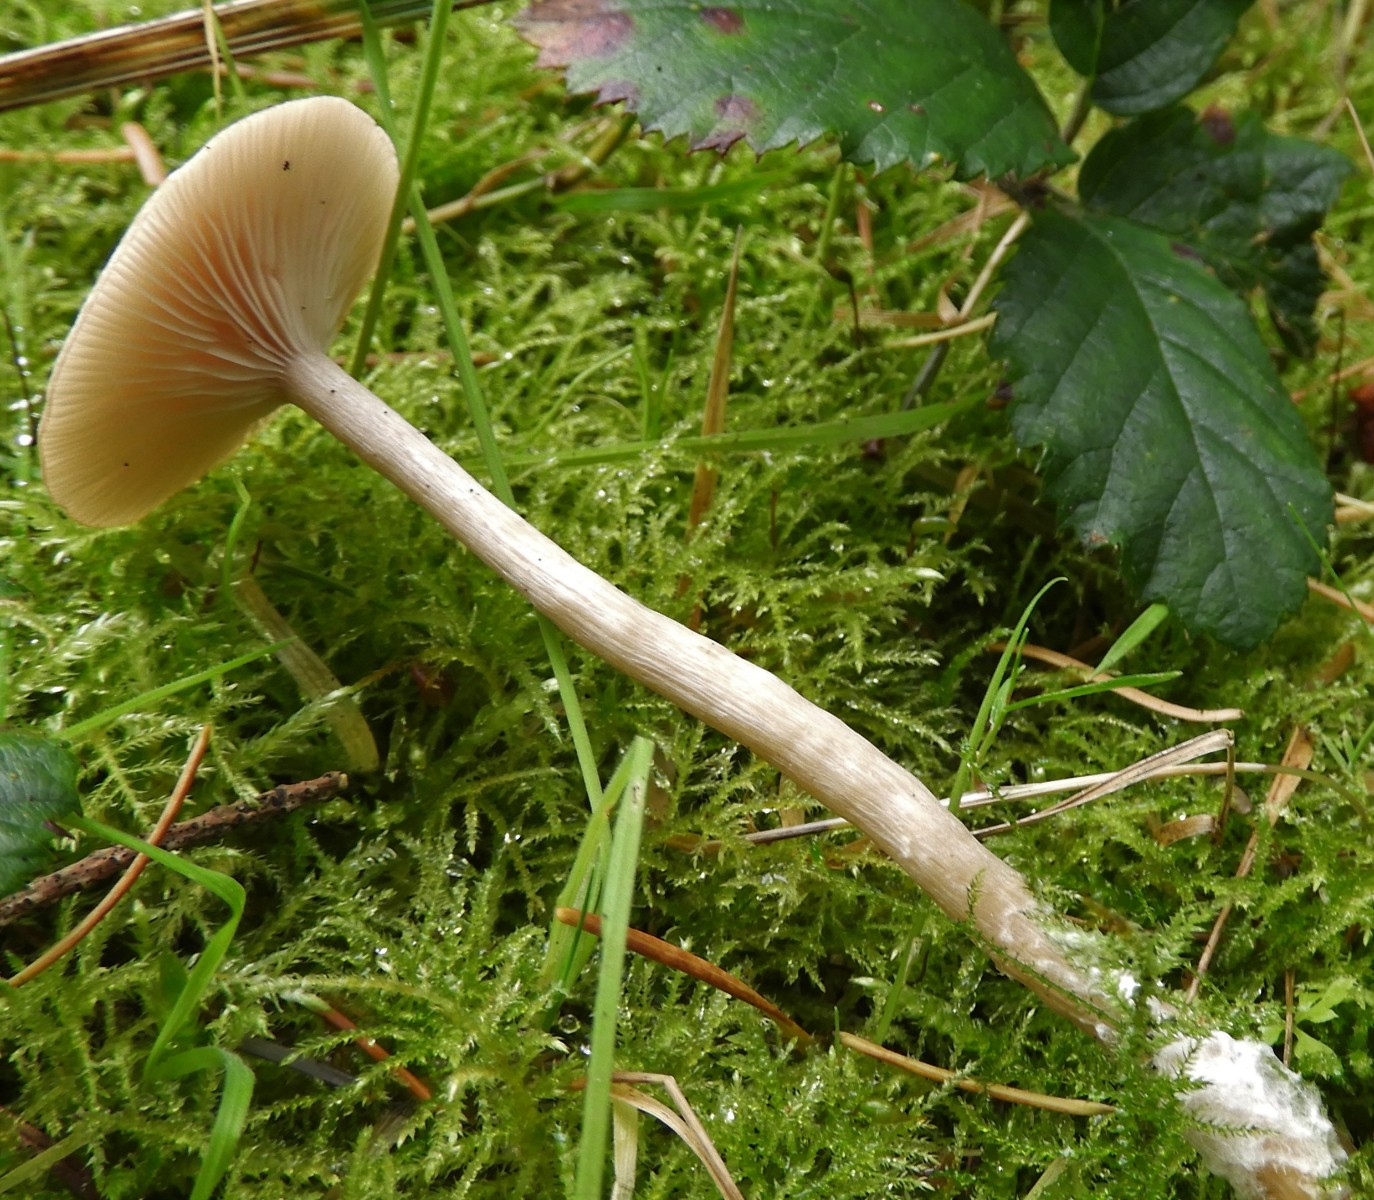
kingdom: Fungi
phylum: Basidiomycota
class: Agaricomycetes
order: Agaricales
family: Tricholomataceae
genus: Clitocybe
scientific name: Clitocybe fragrans
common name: vellugtende tragthat
